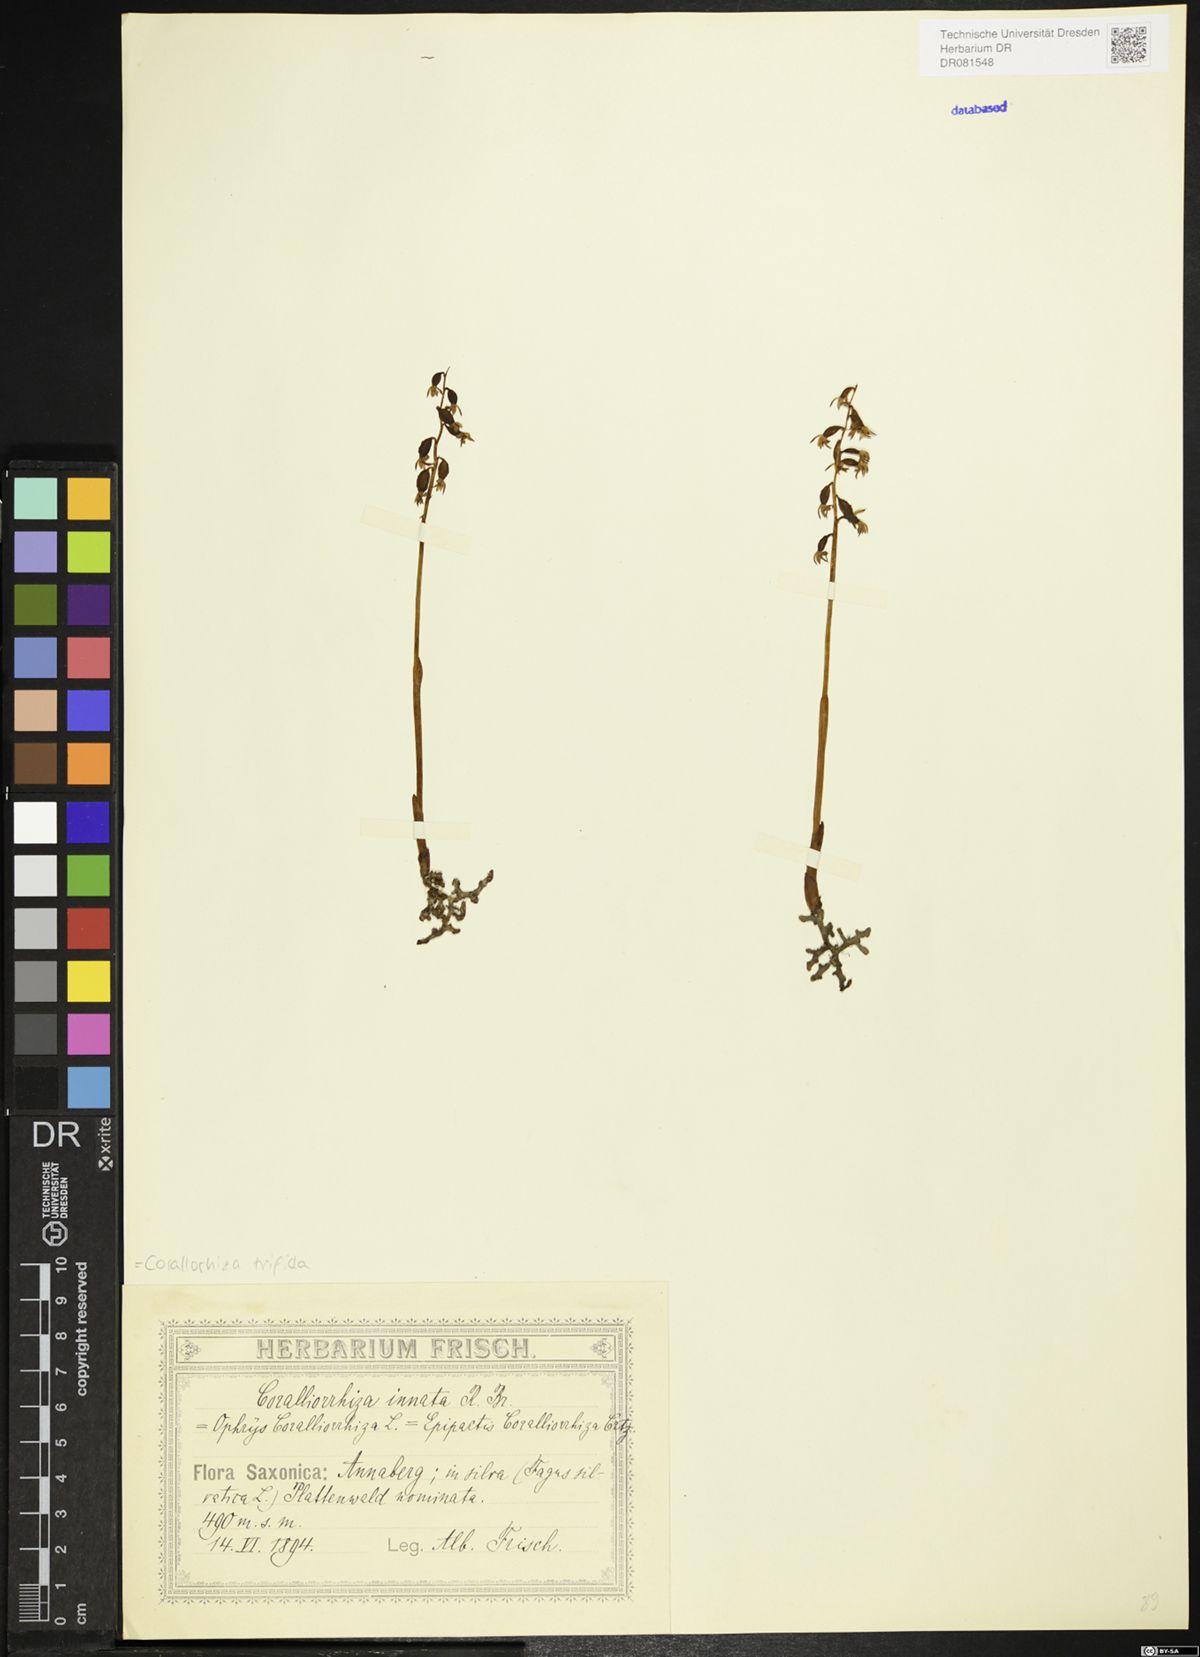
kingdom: Plantae
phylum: Tracheophyta
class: Liliopsida
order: Asparagales
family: Orchidaceae
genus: Corallorhiza
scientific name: Corallorhiza trifida
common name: Yellow coralroot
